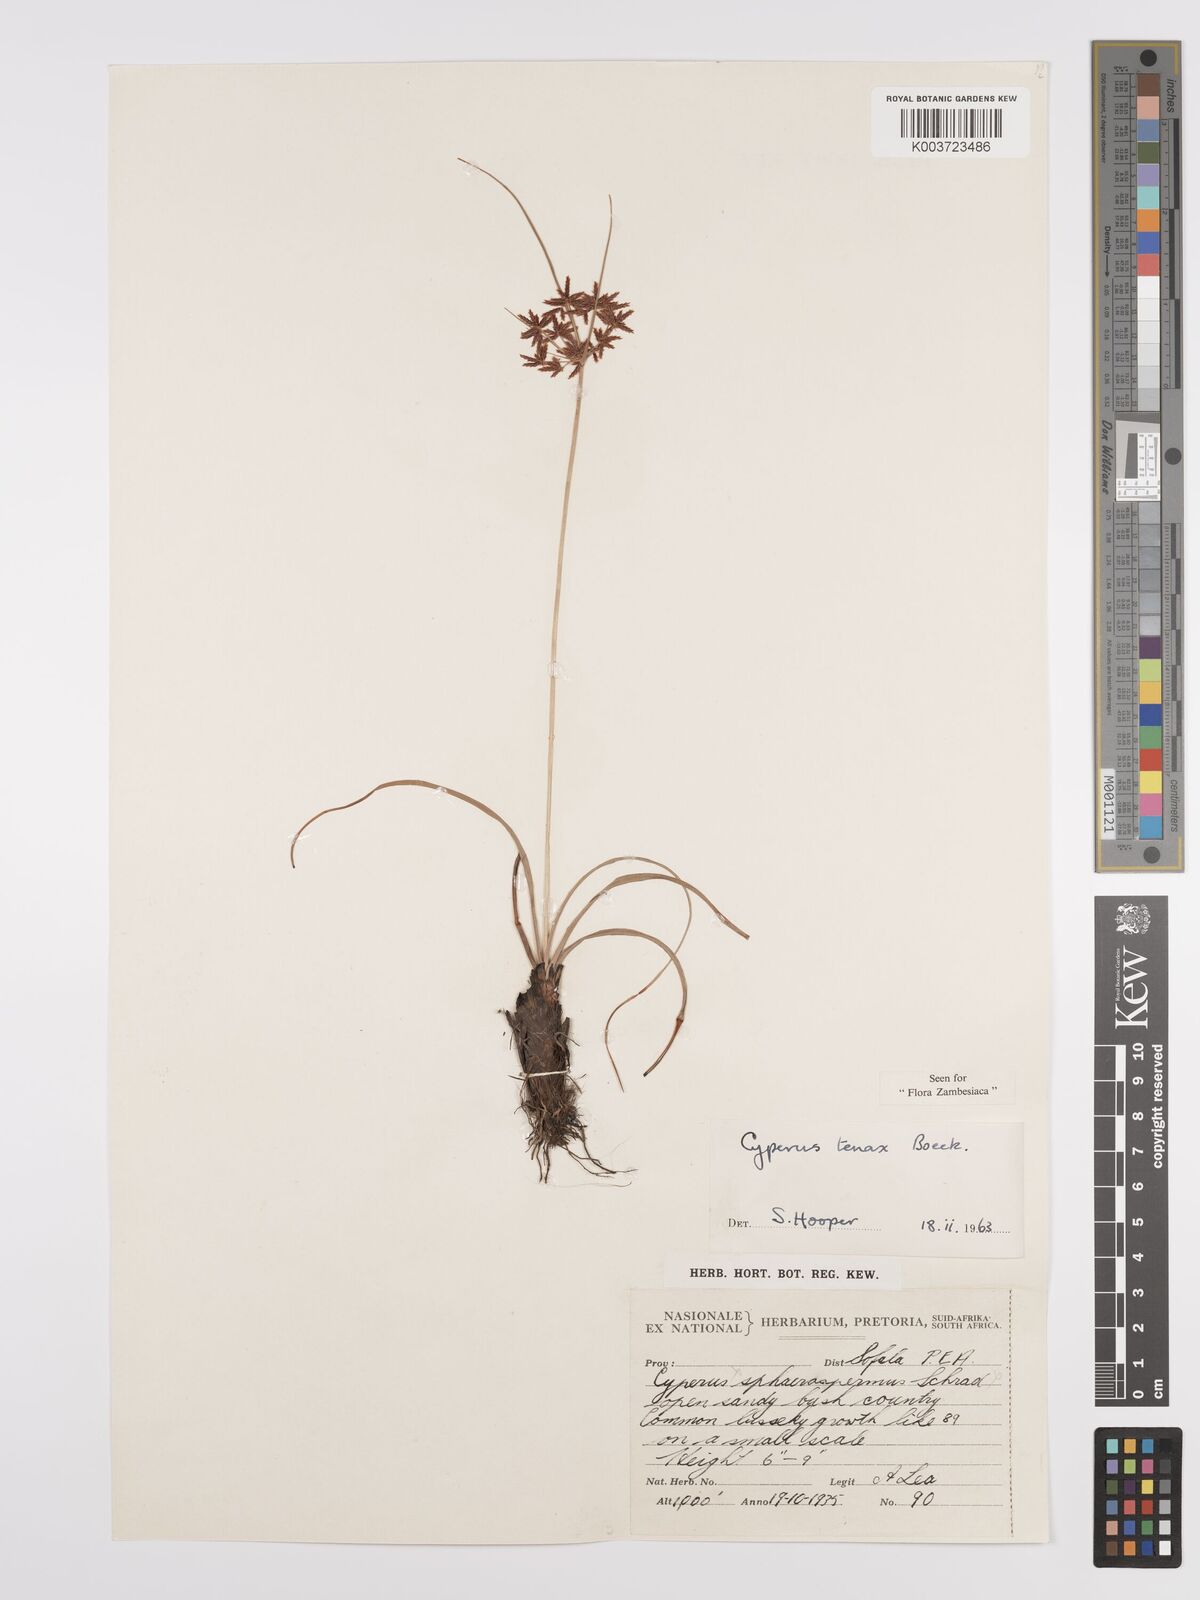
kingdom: Plantae
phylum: Tracheophyta
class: Liliopsida
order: Poales
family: Cyperaceae
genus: Cyperus
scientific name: Cyperus tenax
